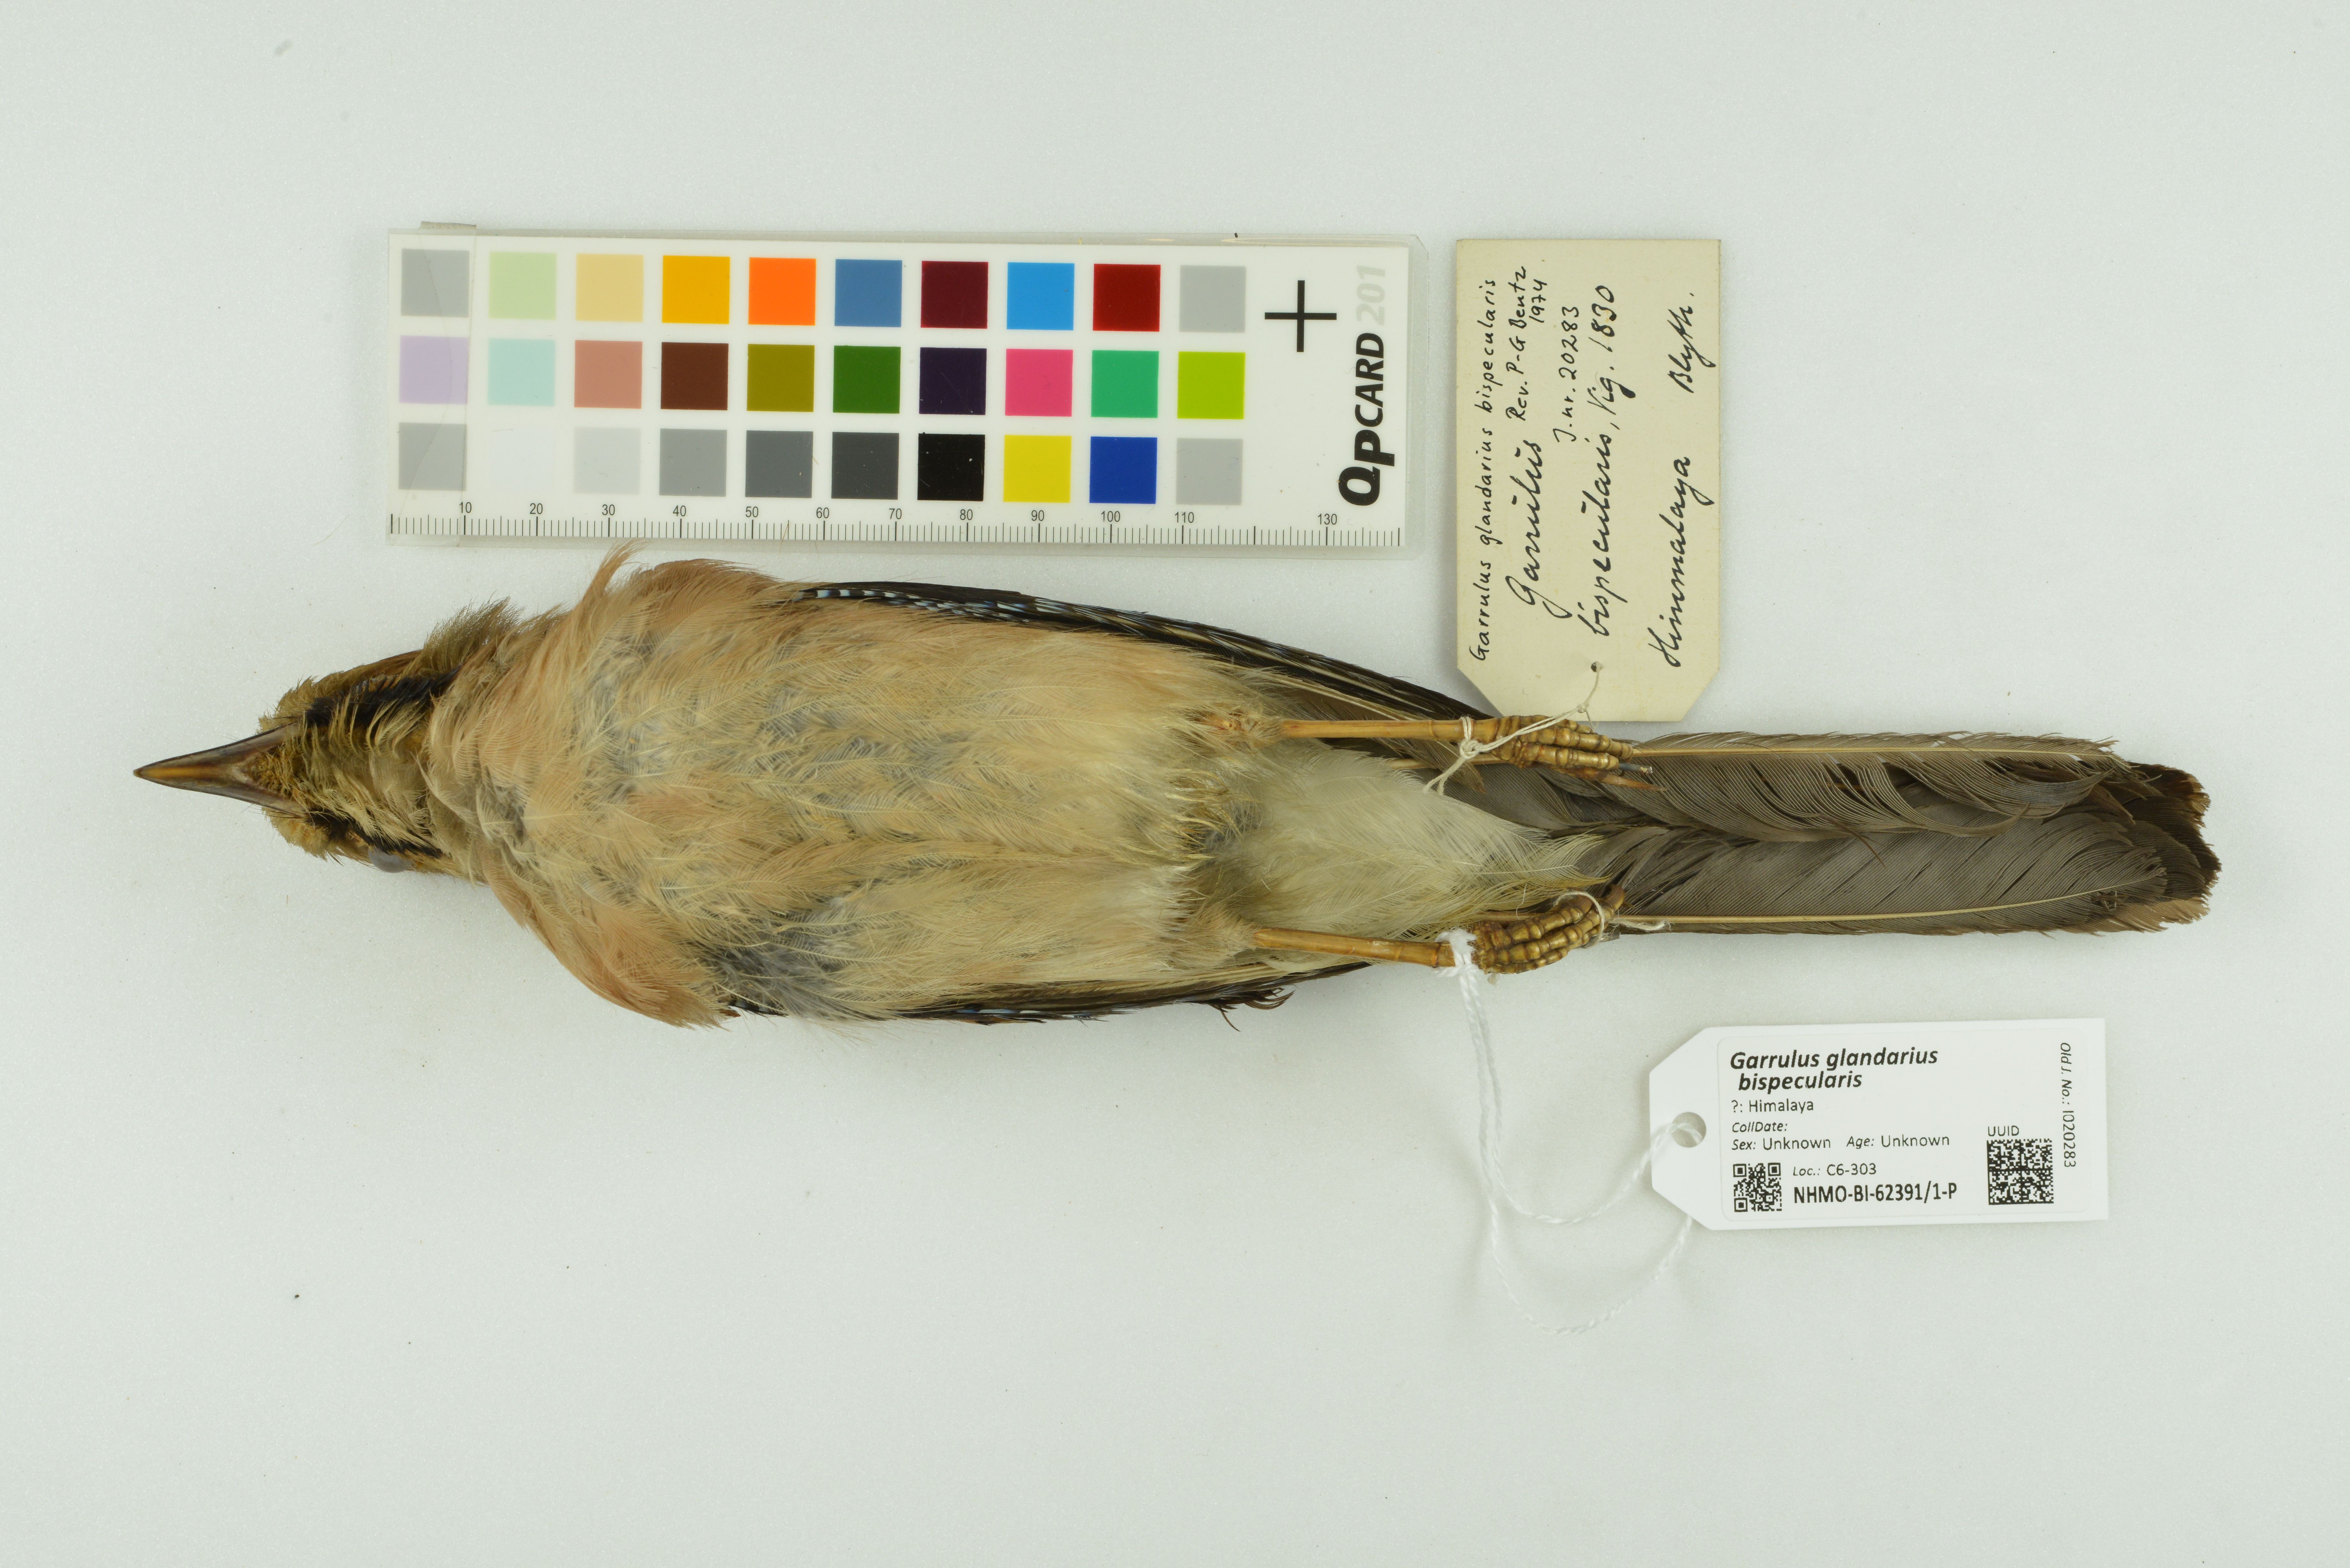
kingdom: Animalia
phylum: Chordata
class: Aves
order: Passeriformes
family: Corvidae
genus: Garrulus
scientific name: Garrulus glandarius
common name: Eurasian jay
